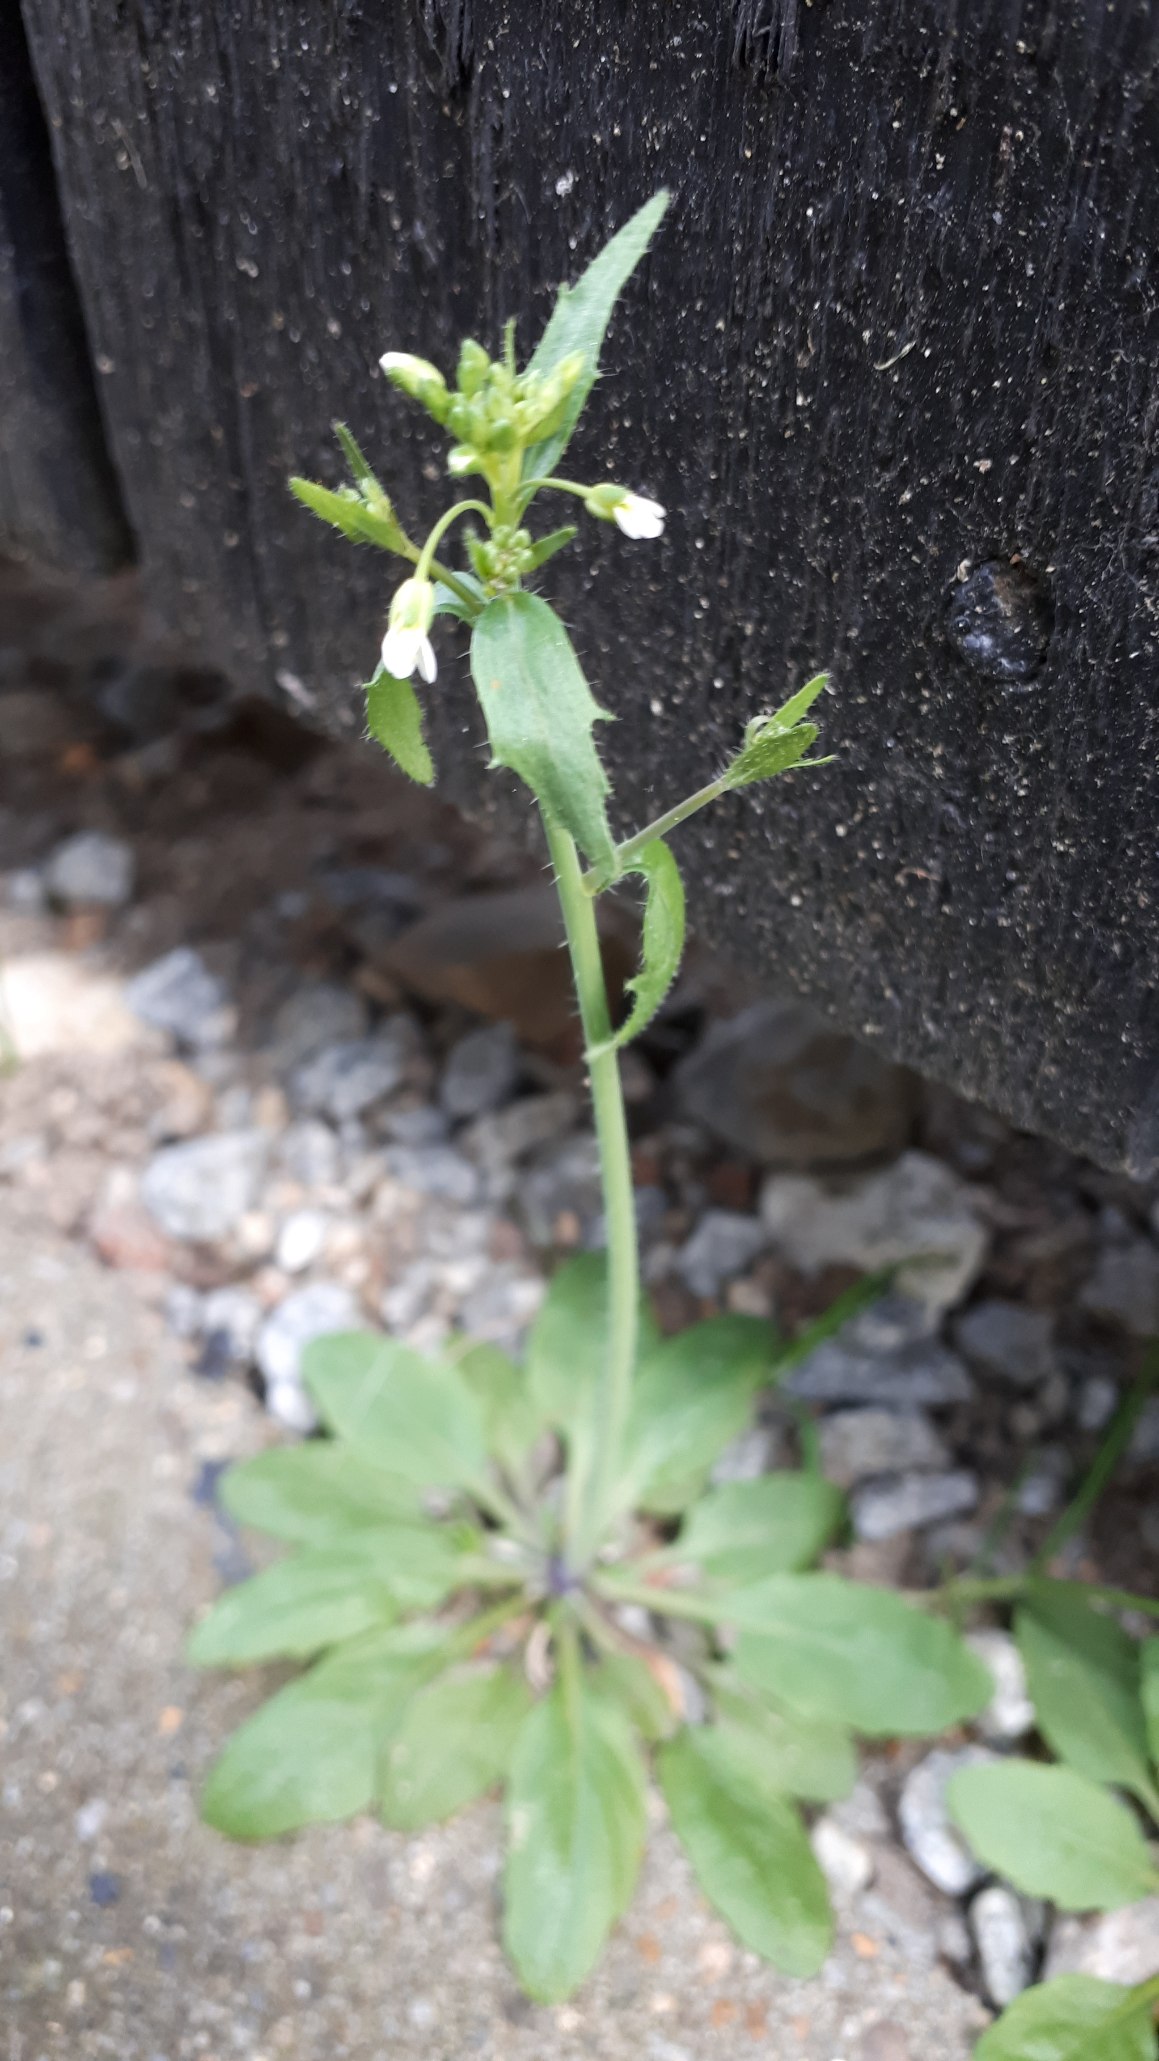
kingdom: Plantae
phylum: Tracheophyta
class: Magnoliopsida
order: Brassicales
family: Brassicaceae
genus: Arabidopsis
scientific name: Arabidopsis thaliana
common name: Almindelig gåsemad
